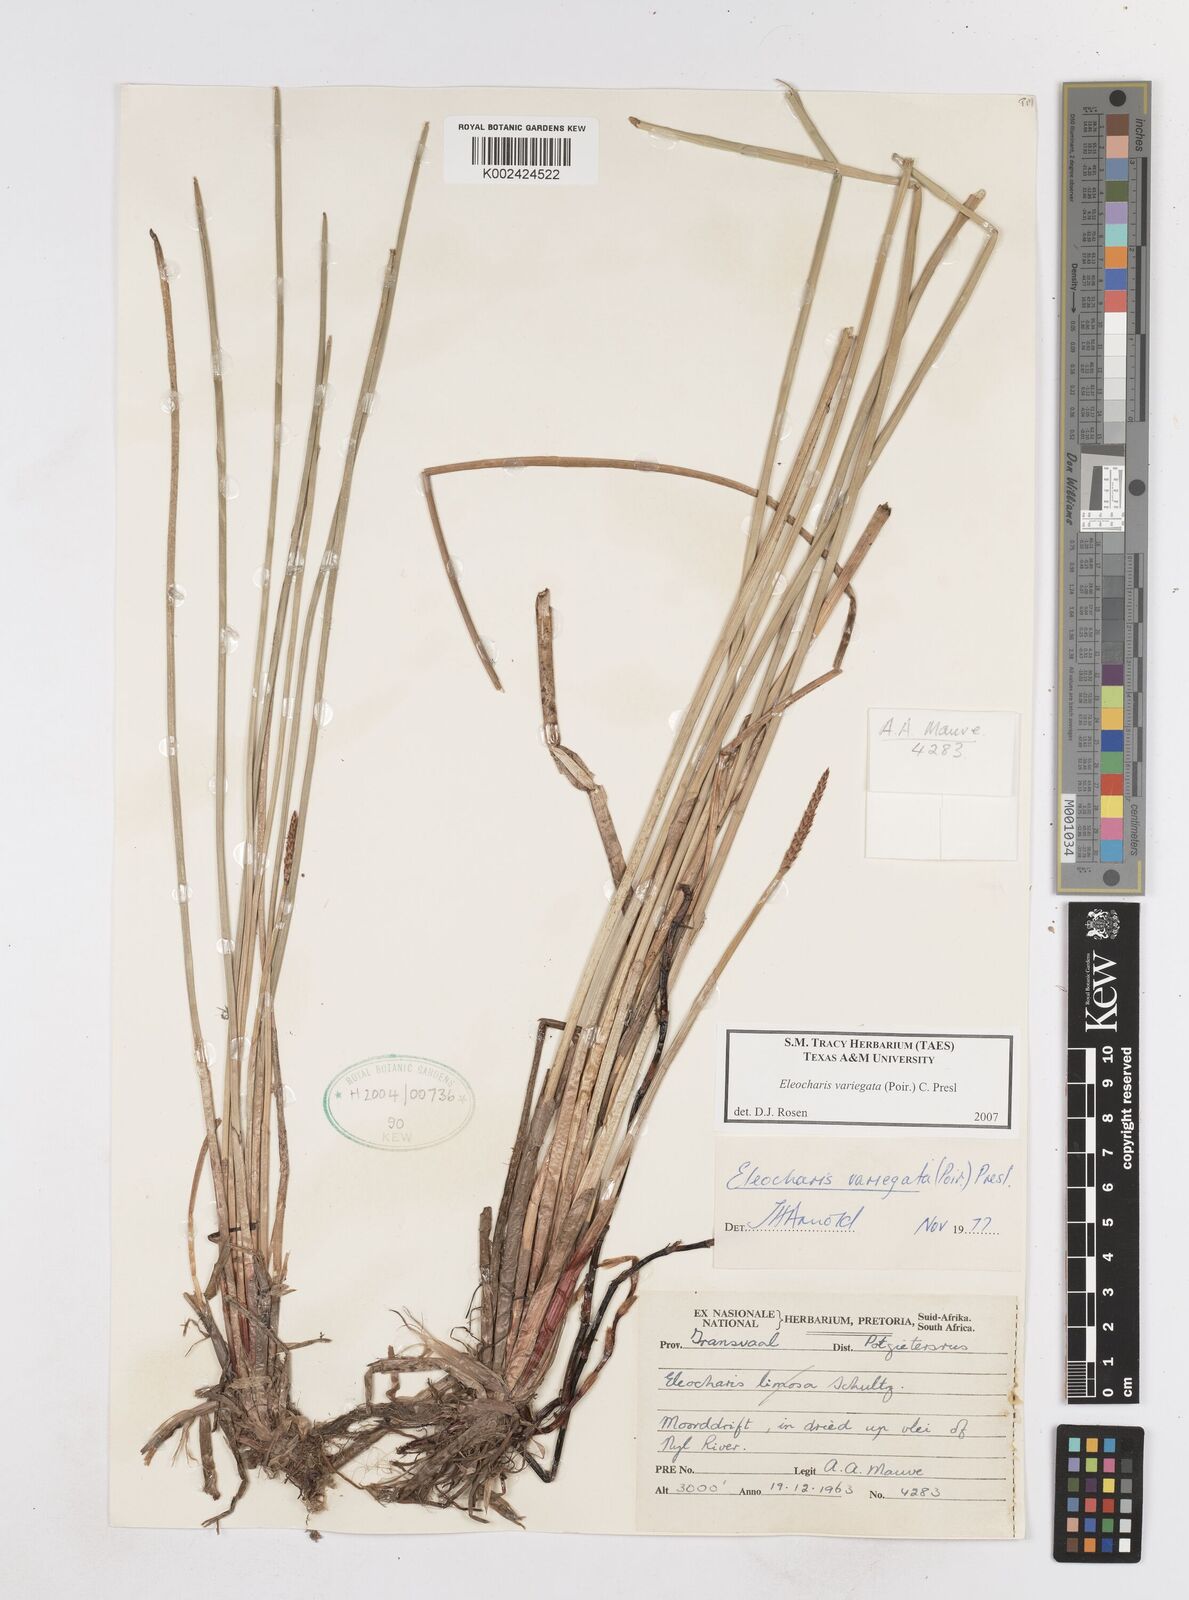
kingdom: Plantae
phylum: Tracheophyta
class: Liliopsida
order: Poales
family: Cyperaceae
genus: Eleocharis
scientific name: Eleocharis variegata
